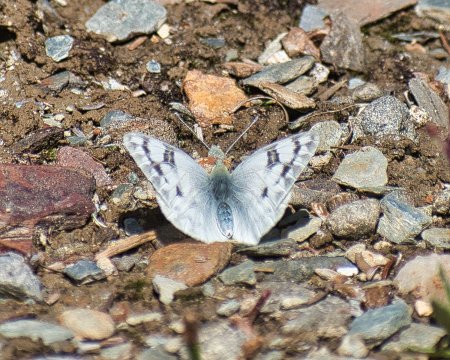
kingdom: Animalia
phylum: Arthropoda
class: Insecta
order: Lepidoptera
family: Pieridae
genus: Pontia
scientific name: Pontia occidentalis
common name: Western White
